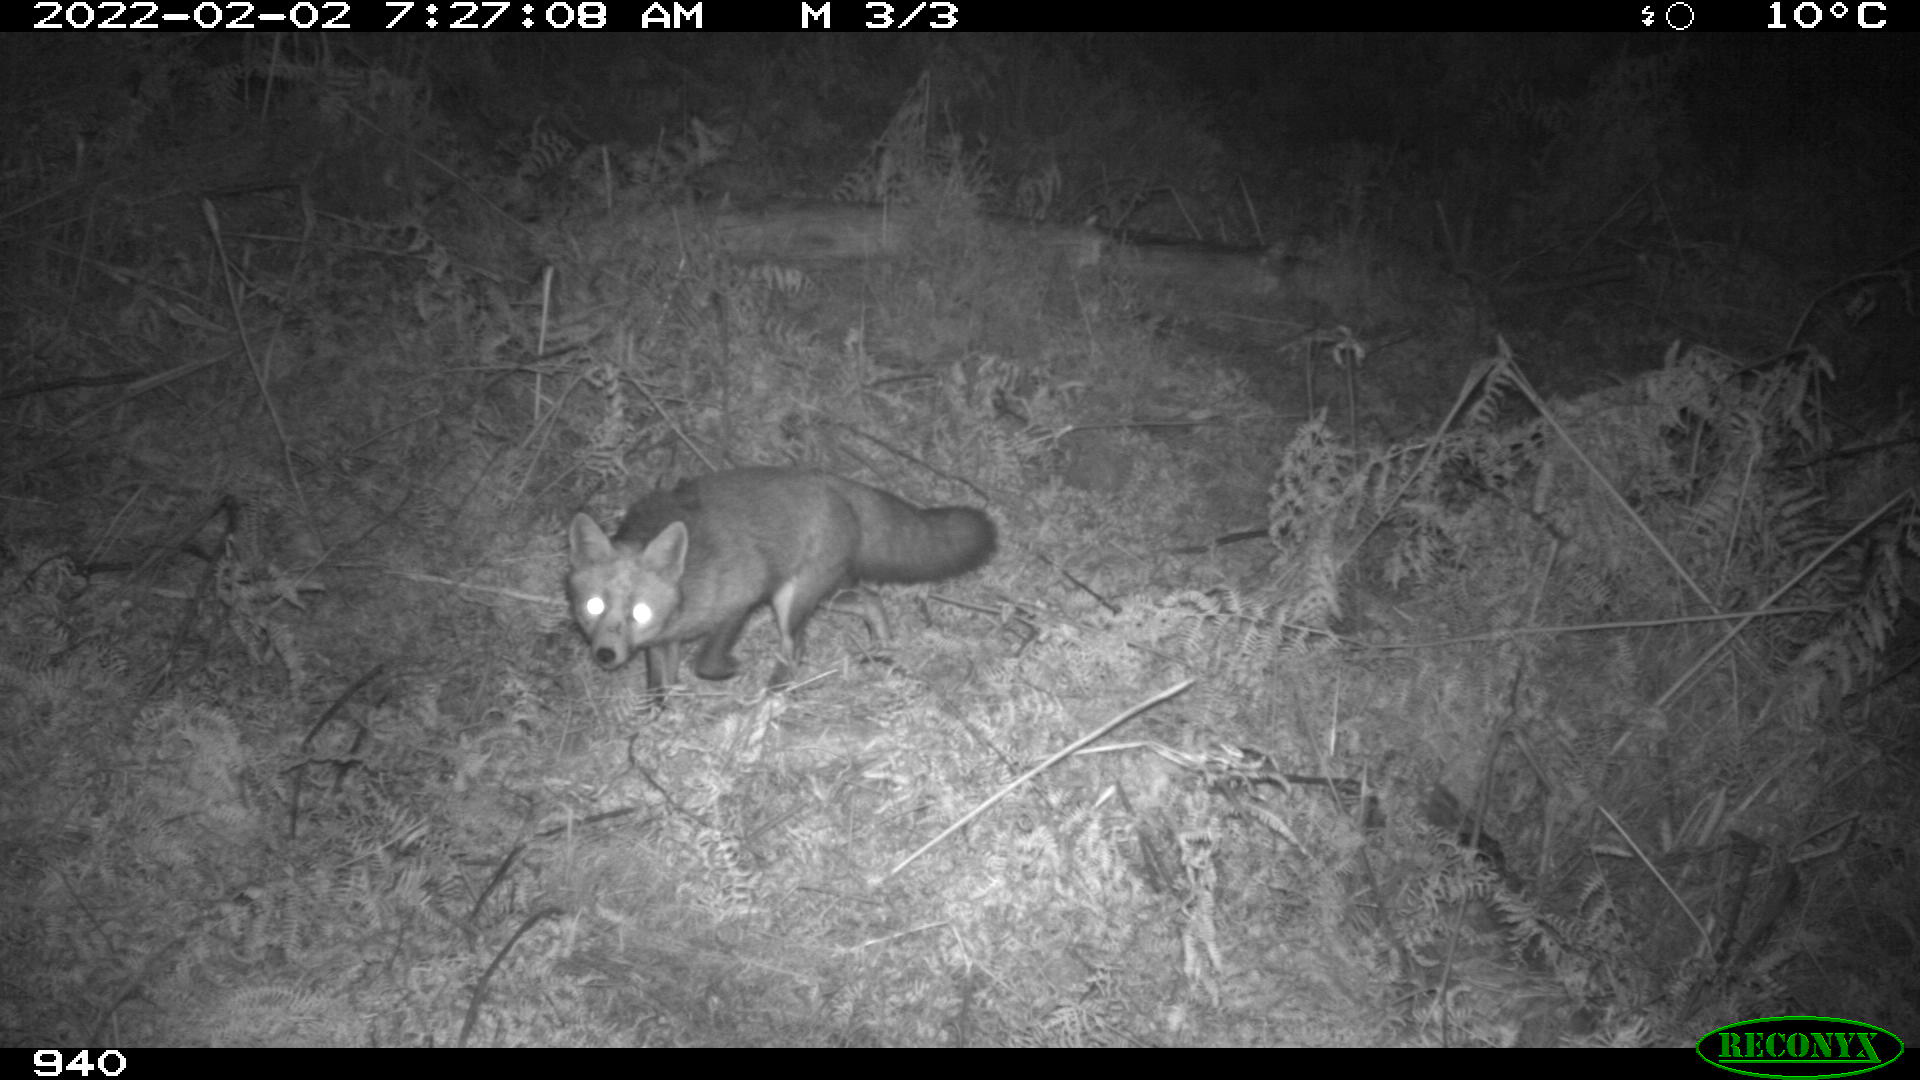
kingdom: Animalia
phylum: Chordata
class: Mammalia
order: Carnivora
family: Canidae
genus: Vulpes
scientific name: Vulpes vulpes
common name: Red fox
